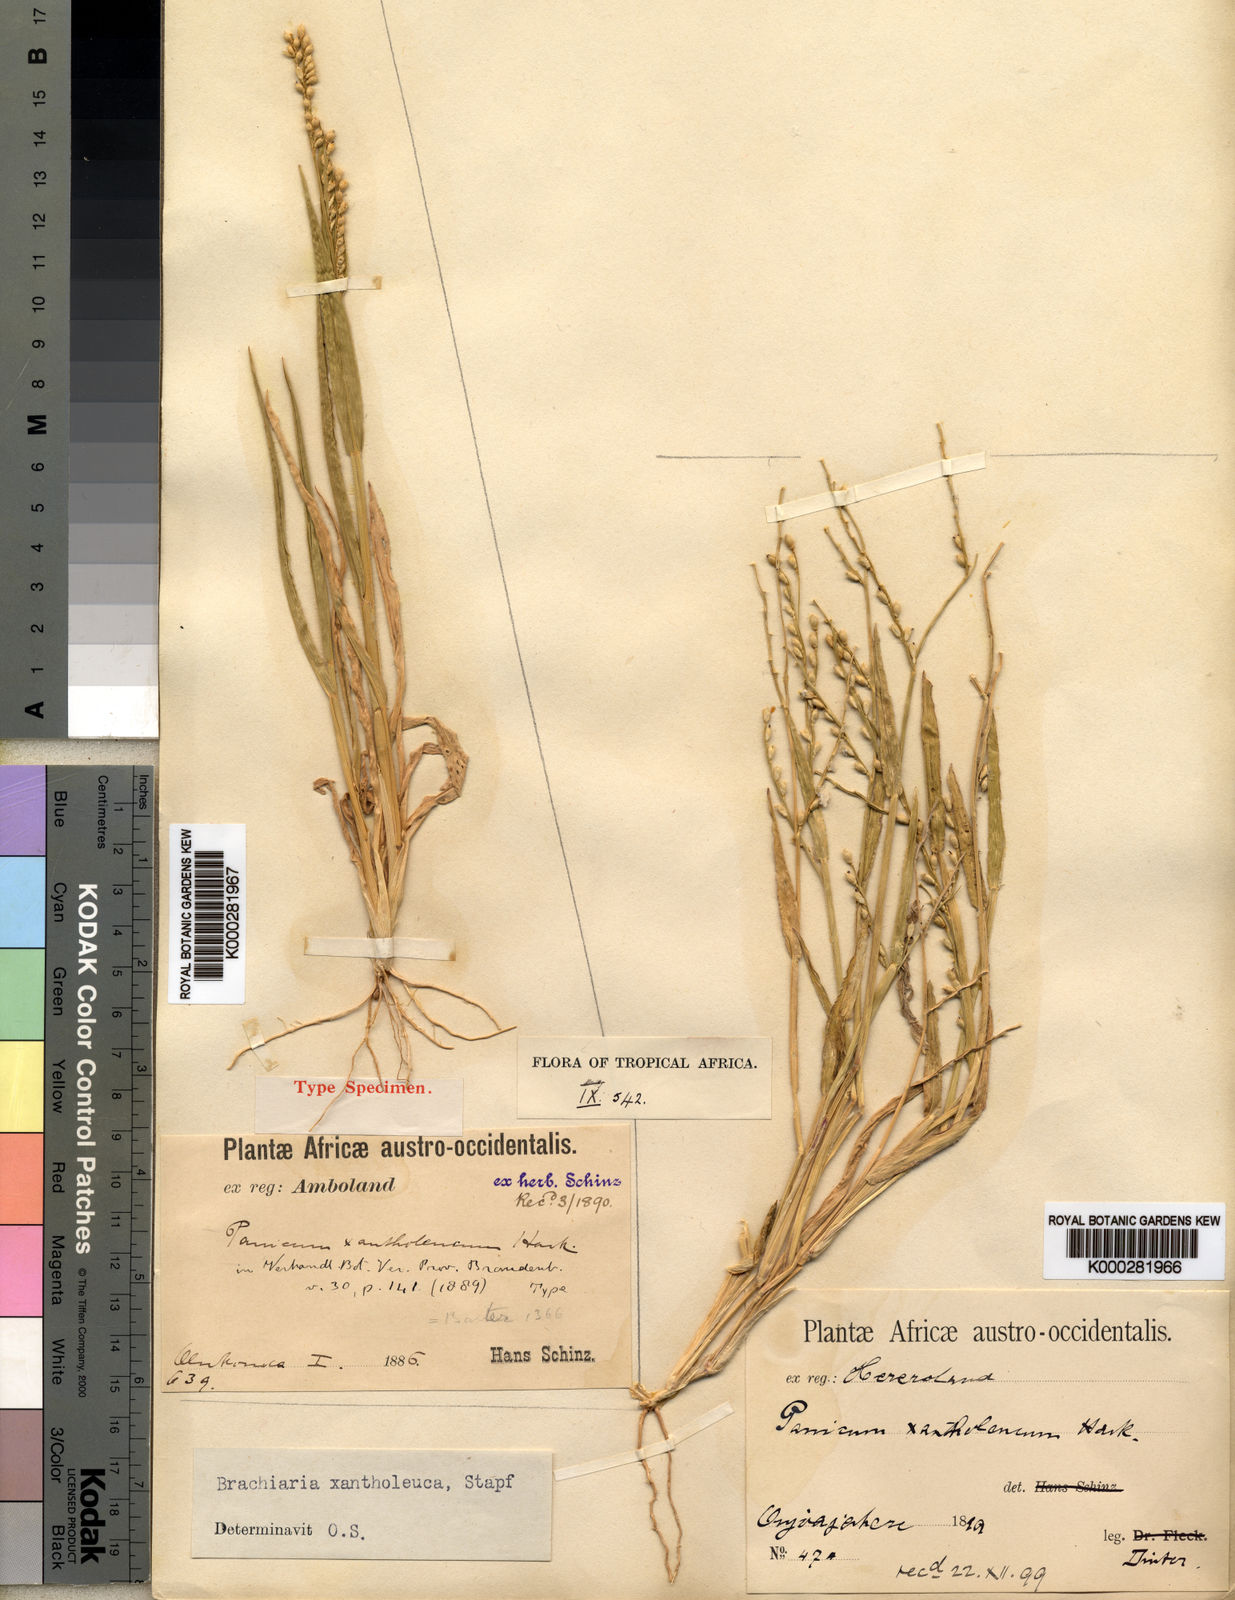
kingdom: Plantae
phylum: Tracheophyta
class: Liliopsida
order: Poales
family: Poaceae
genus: Urochloa
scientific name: Urochloa xantholeuca
